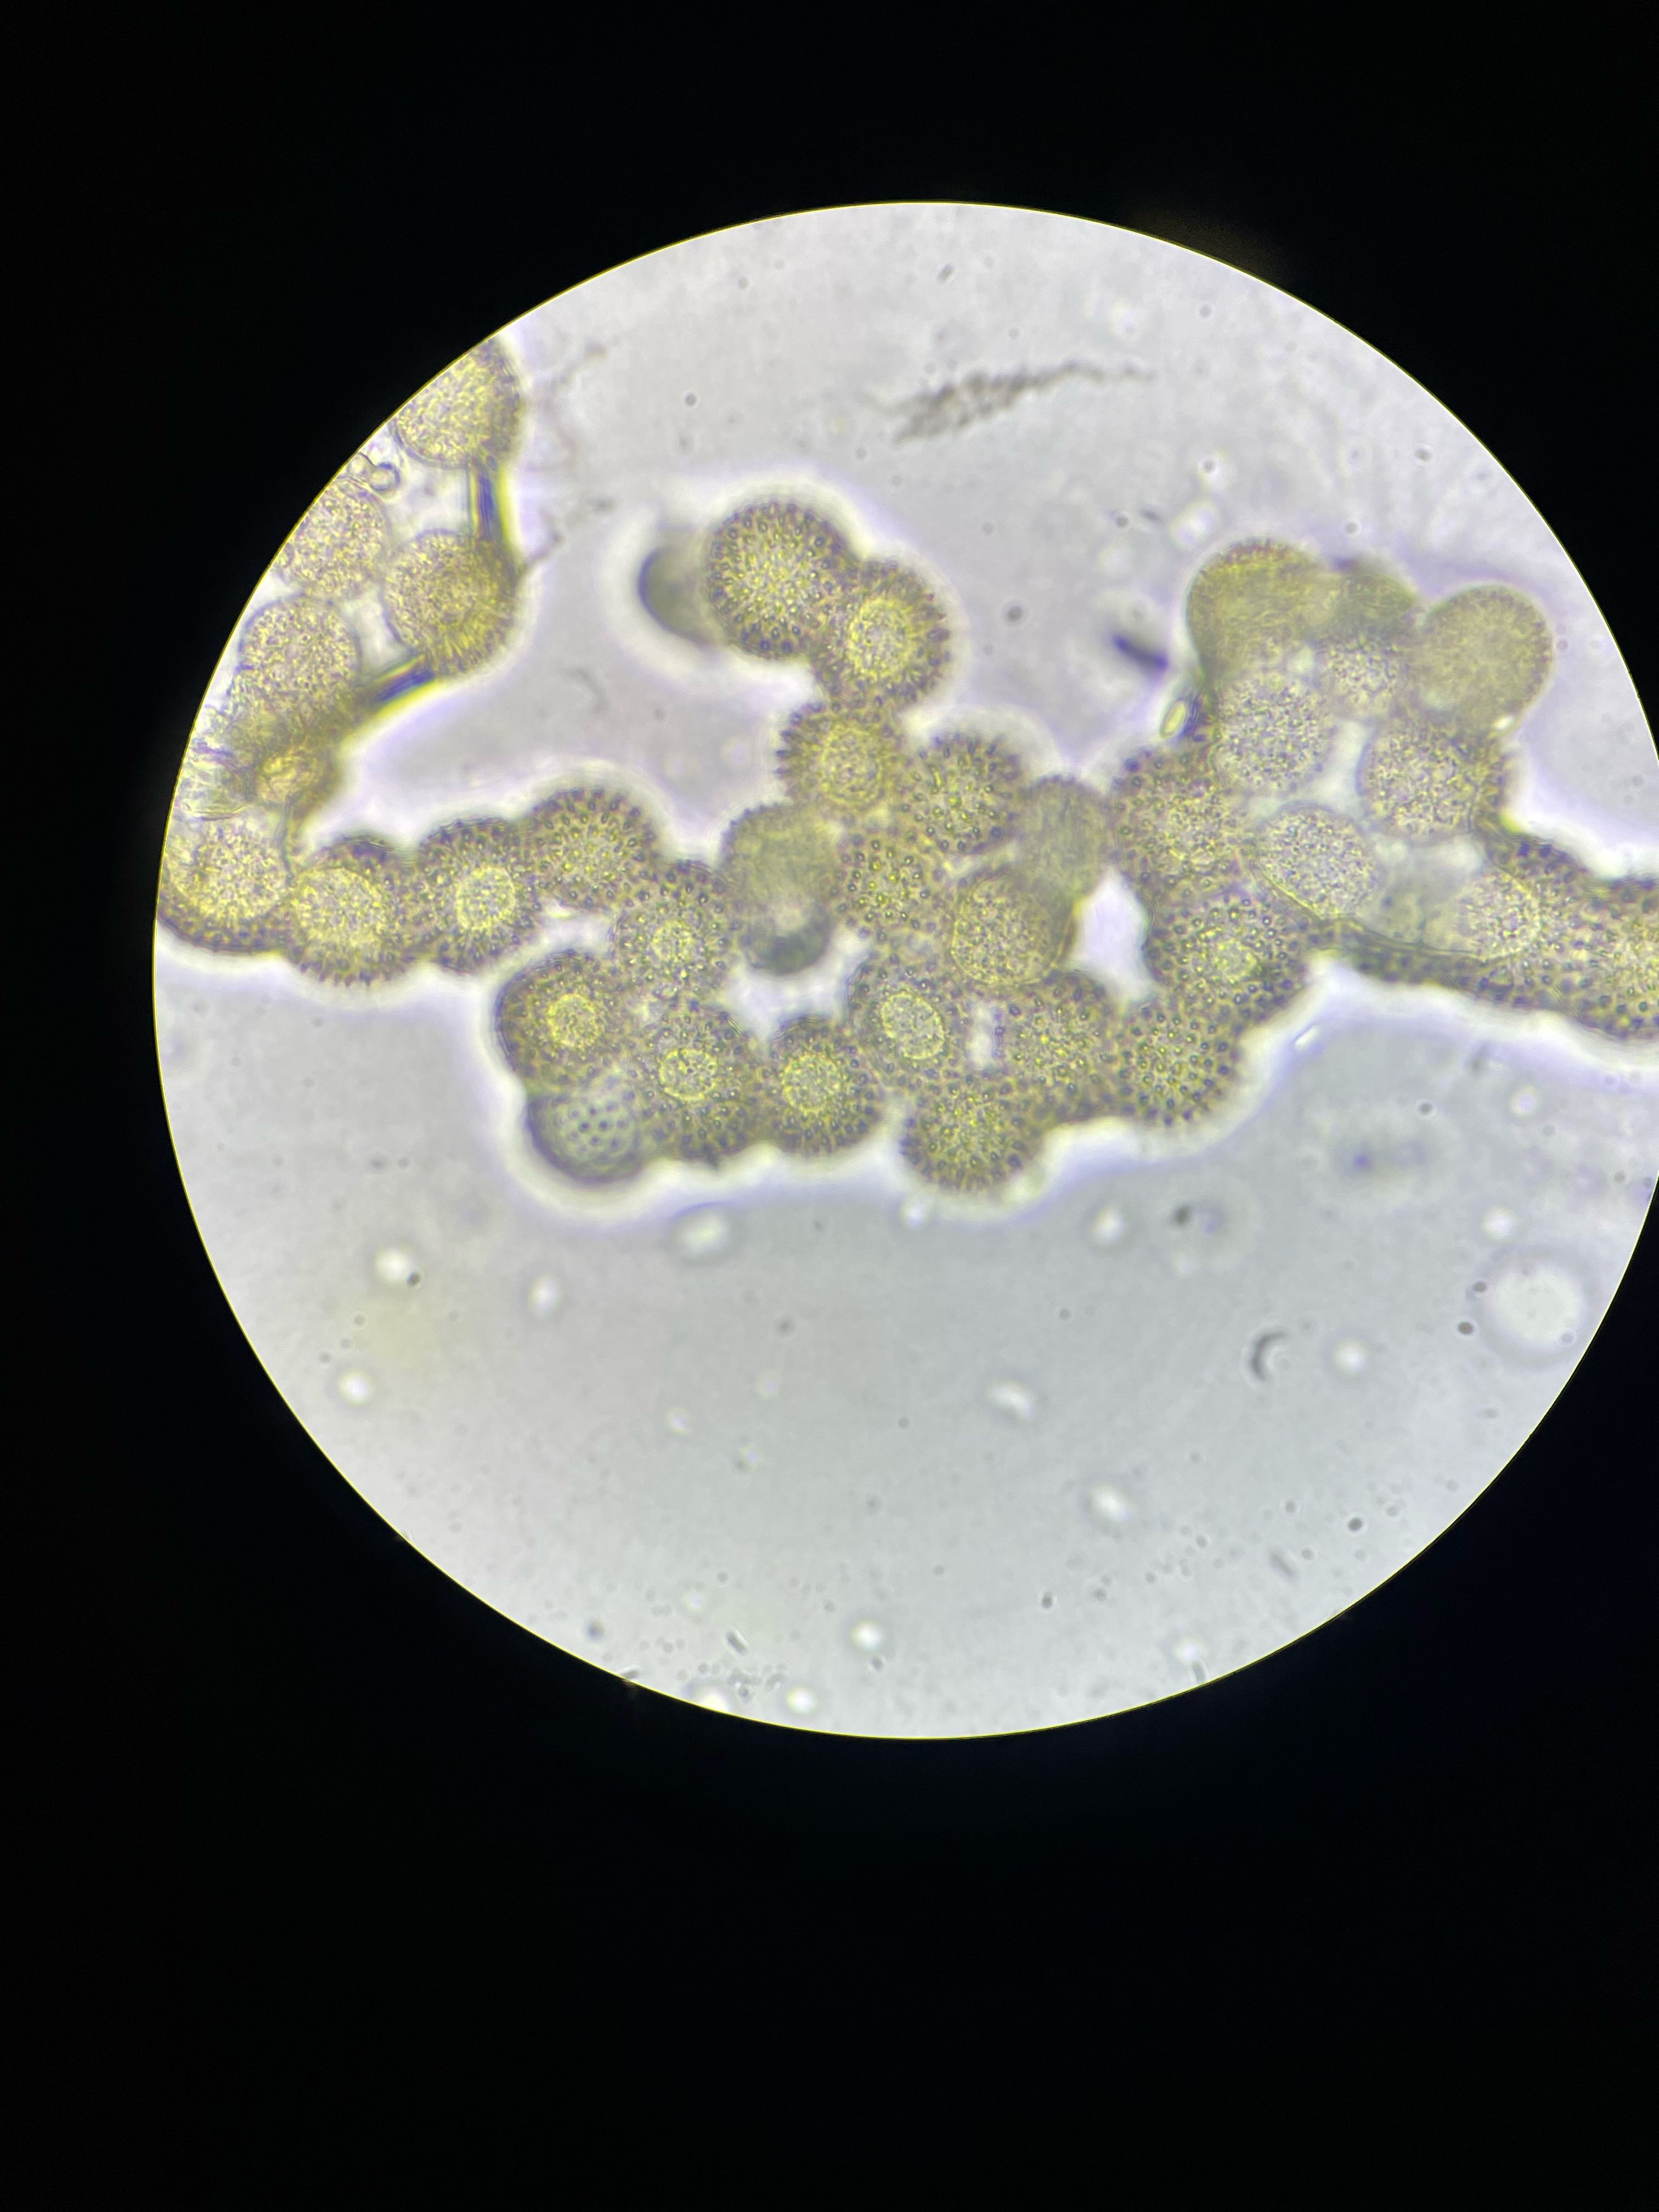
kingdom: Fungi
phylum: Basidiomycota
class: Pucciniomycetes
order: Pucciniales
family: Melampsoraceae
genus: Melampsora
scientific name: Melampsora epitea
